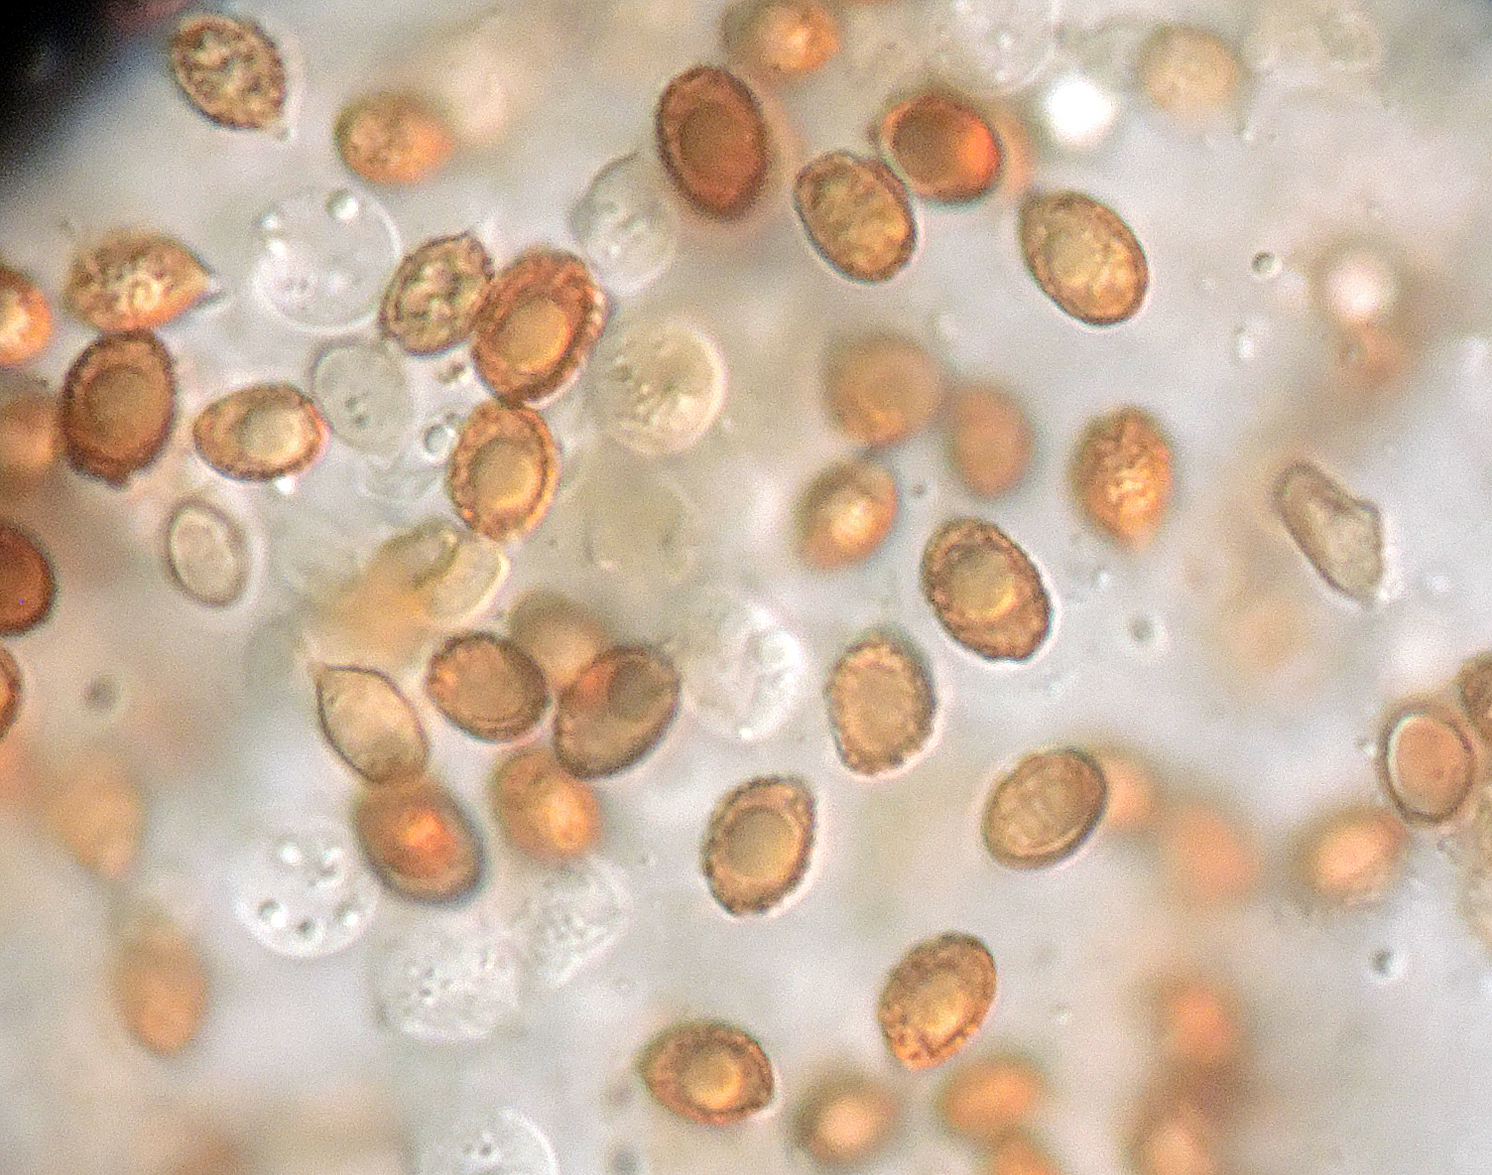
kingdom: Fungi
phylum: Basidiomycota
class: Agaricomycetes
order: Agaricales
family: Cortinariaceae
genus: Cortinarius
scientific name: Cortinarius hinnuleus
